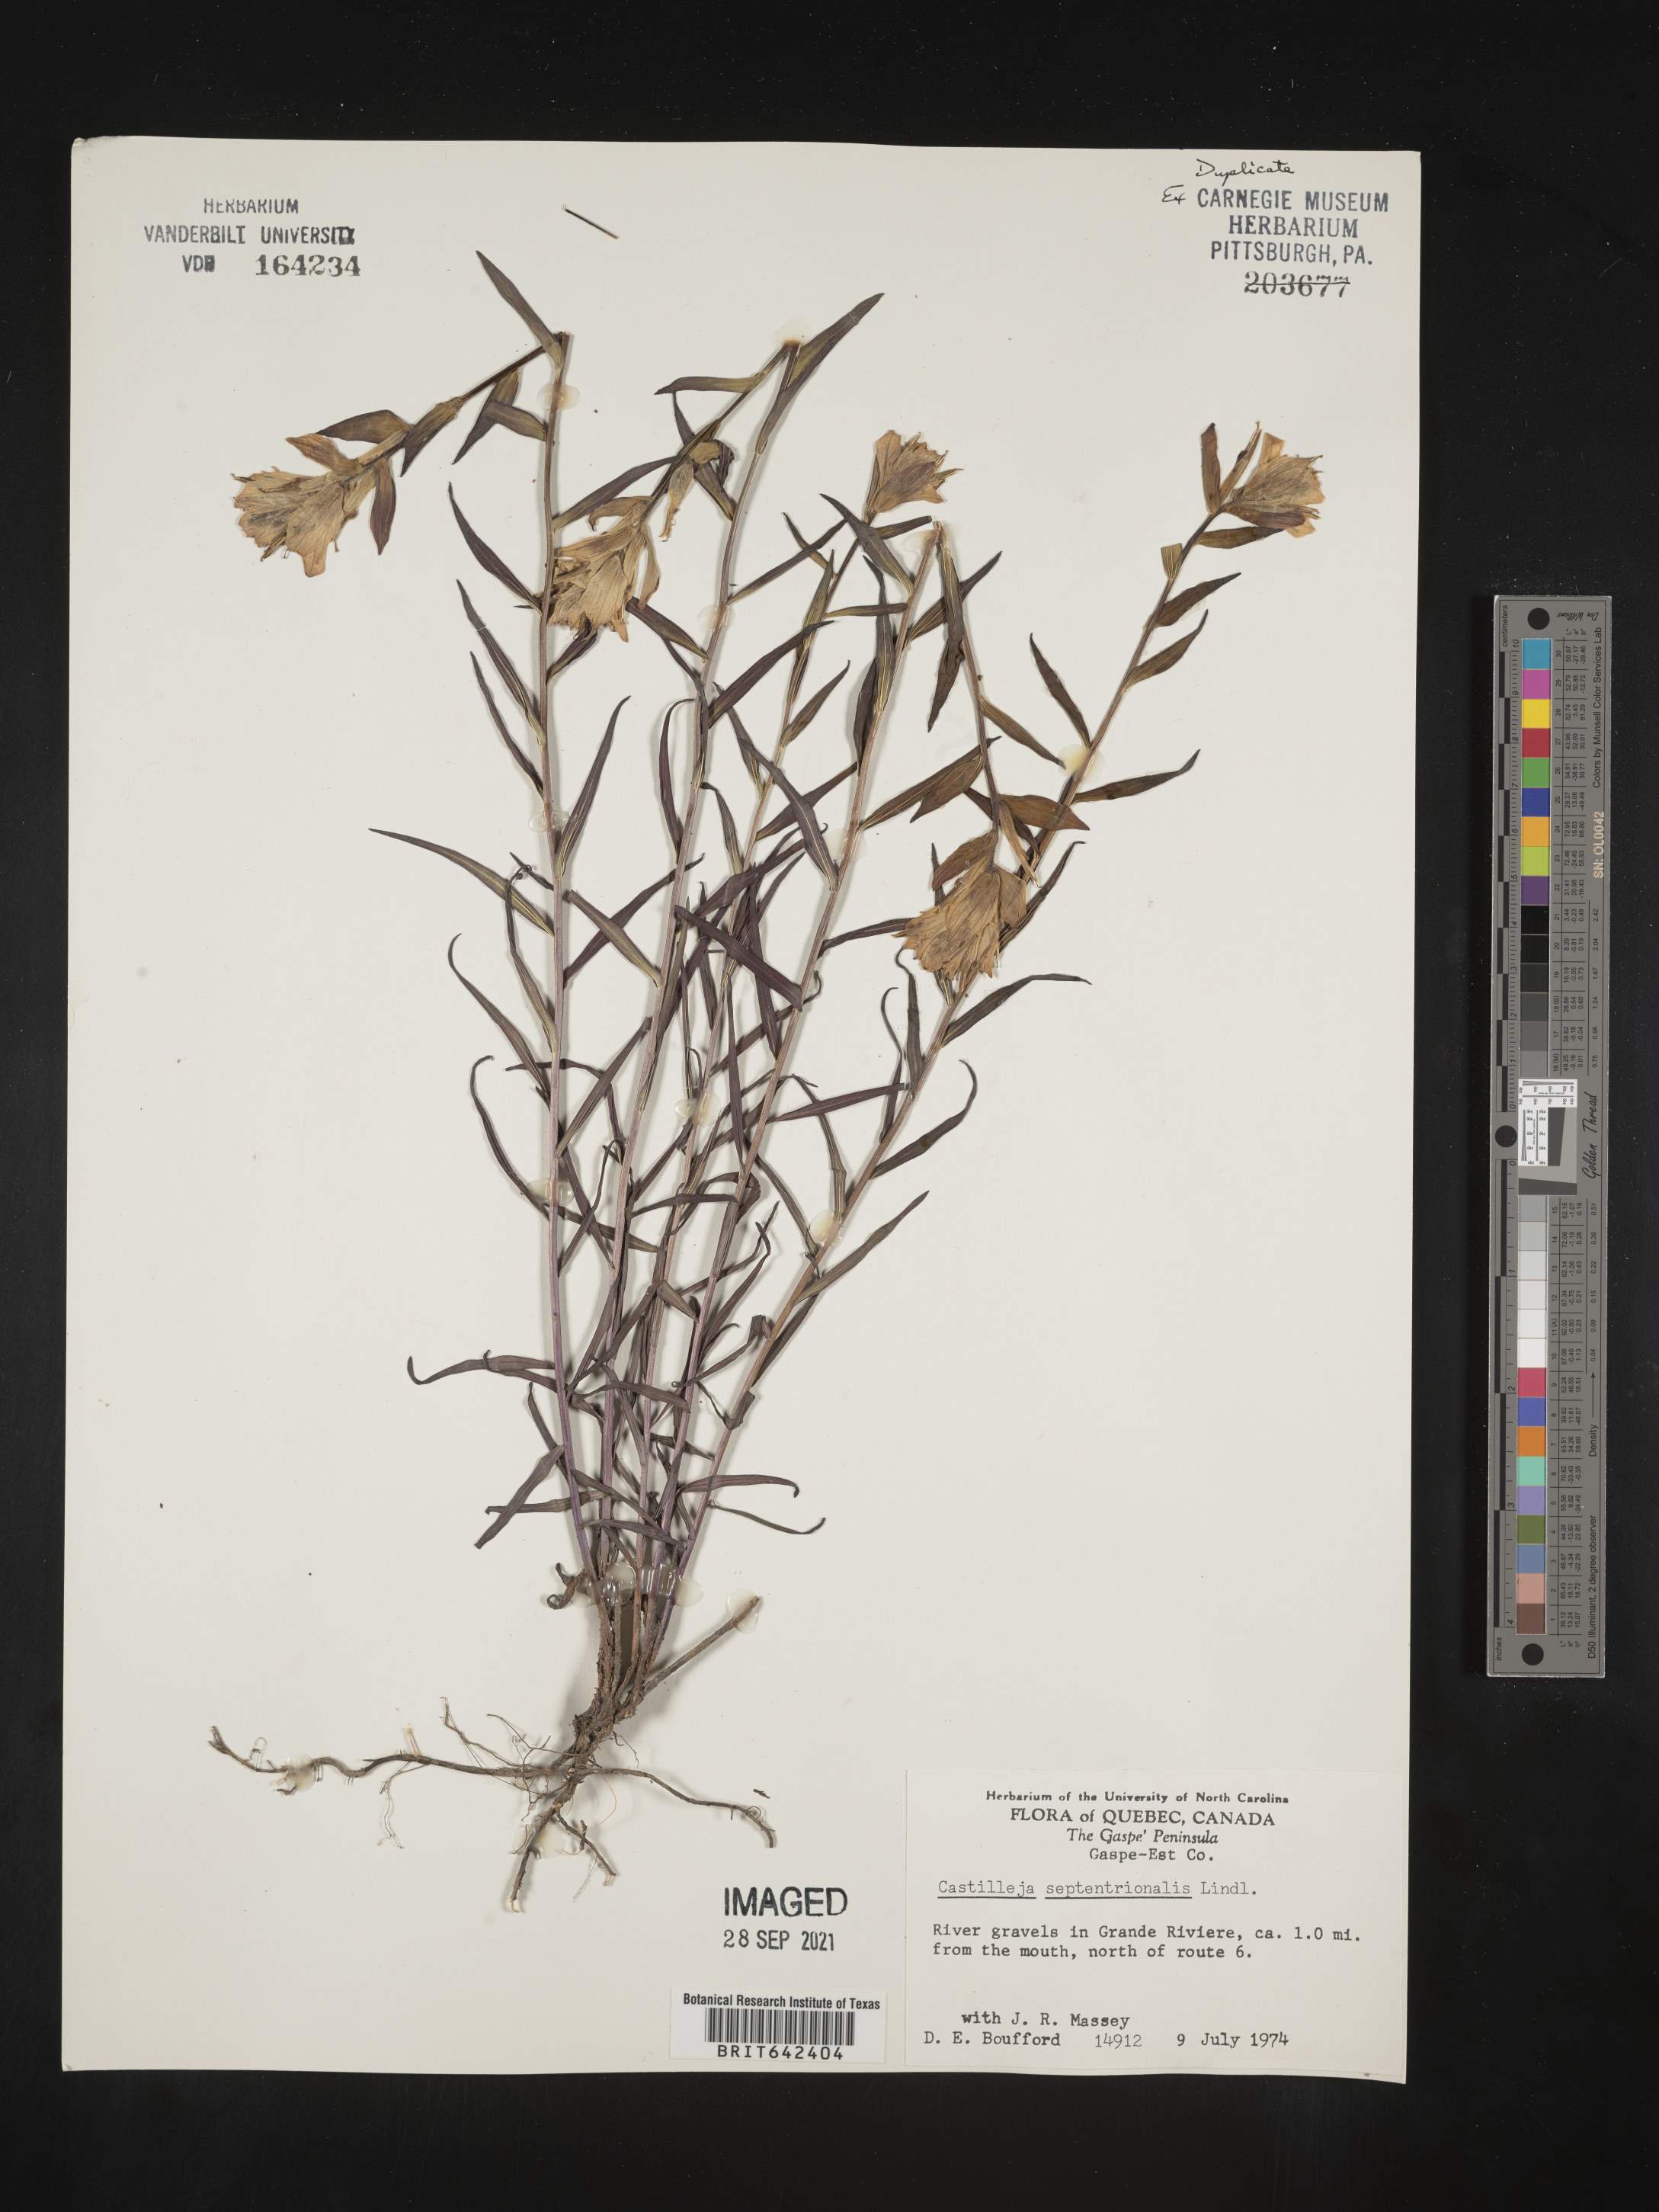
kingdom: Plantae
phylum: Tracheophyta
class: Magnoliopsida
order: Lamiales
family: Orobanchaceae
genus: Castilleja
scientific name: Castilleja
